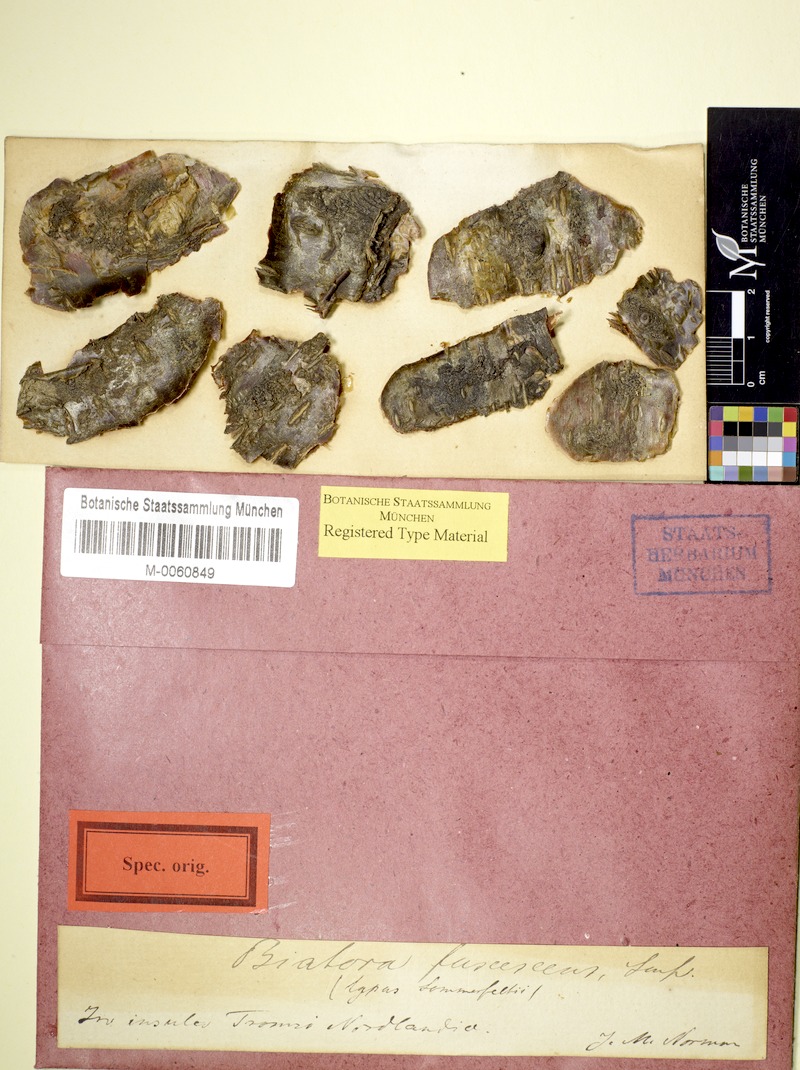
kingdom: Fungi
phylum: Ascomycota
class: Lecanoromycetes
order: Lecanorales
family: Lecanoraceae
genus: Lecanora
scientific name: Lecanora fuscescens
